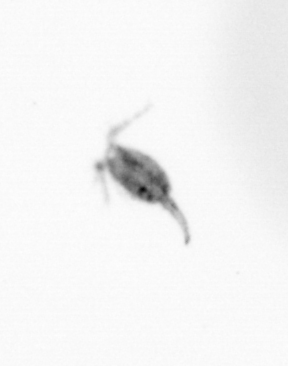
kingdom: Animalia
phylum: Arthropoda
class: Copepoda
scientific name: Copepoda
